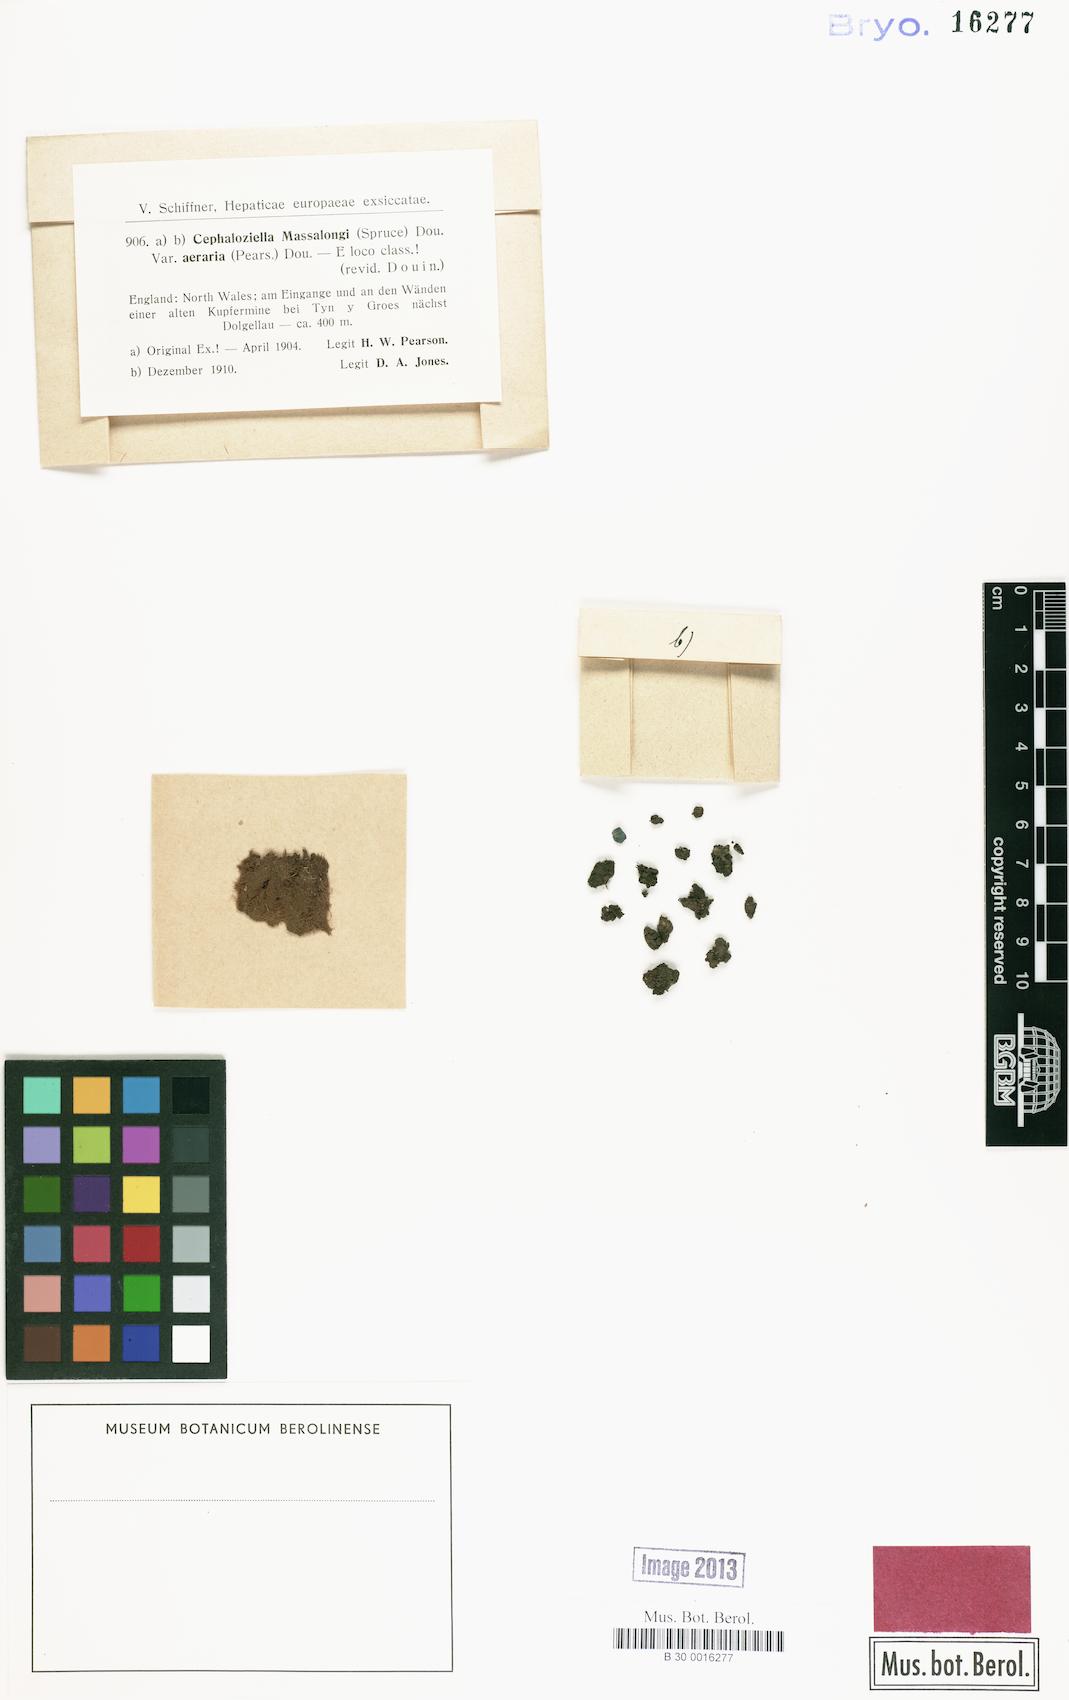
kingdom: Plantae
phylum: Marchantiophyta
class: Jungermanniopsida
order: Jungermanniales
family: Cephaloziellaceae
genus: Cephaloziella
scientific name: Cephaloziella massalongi
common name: Lesser copperwort
